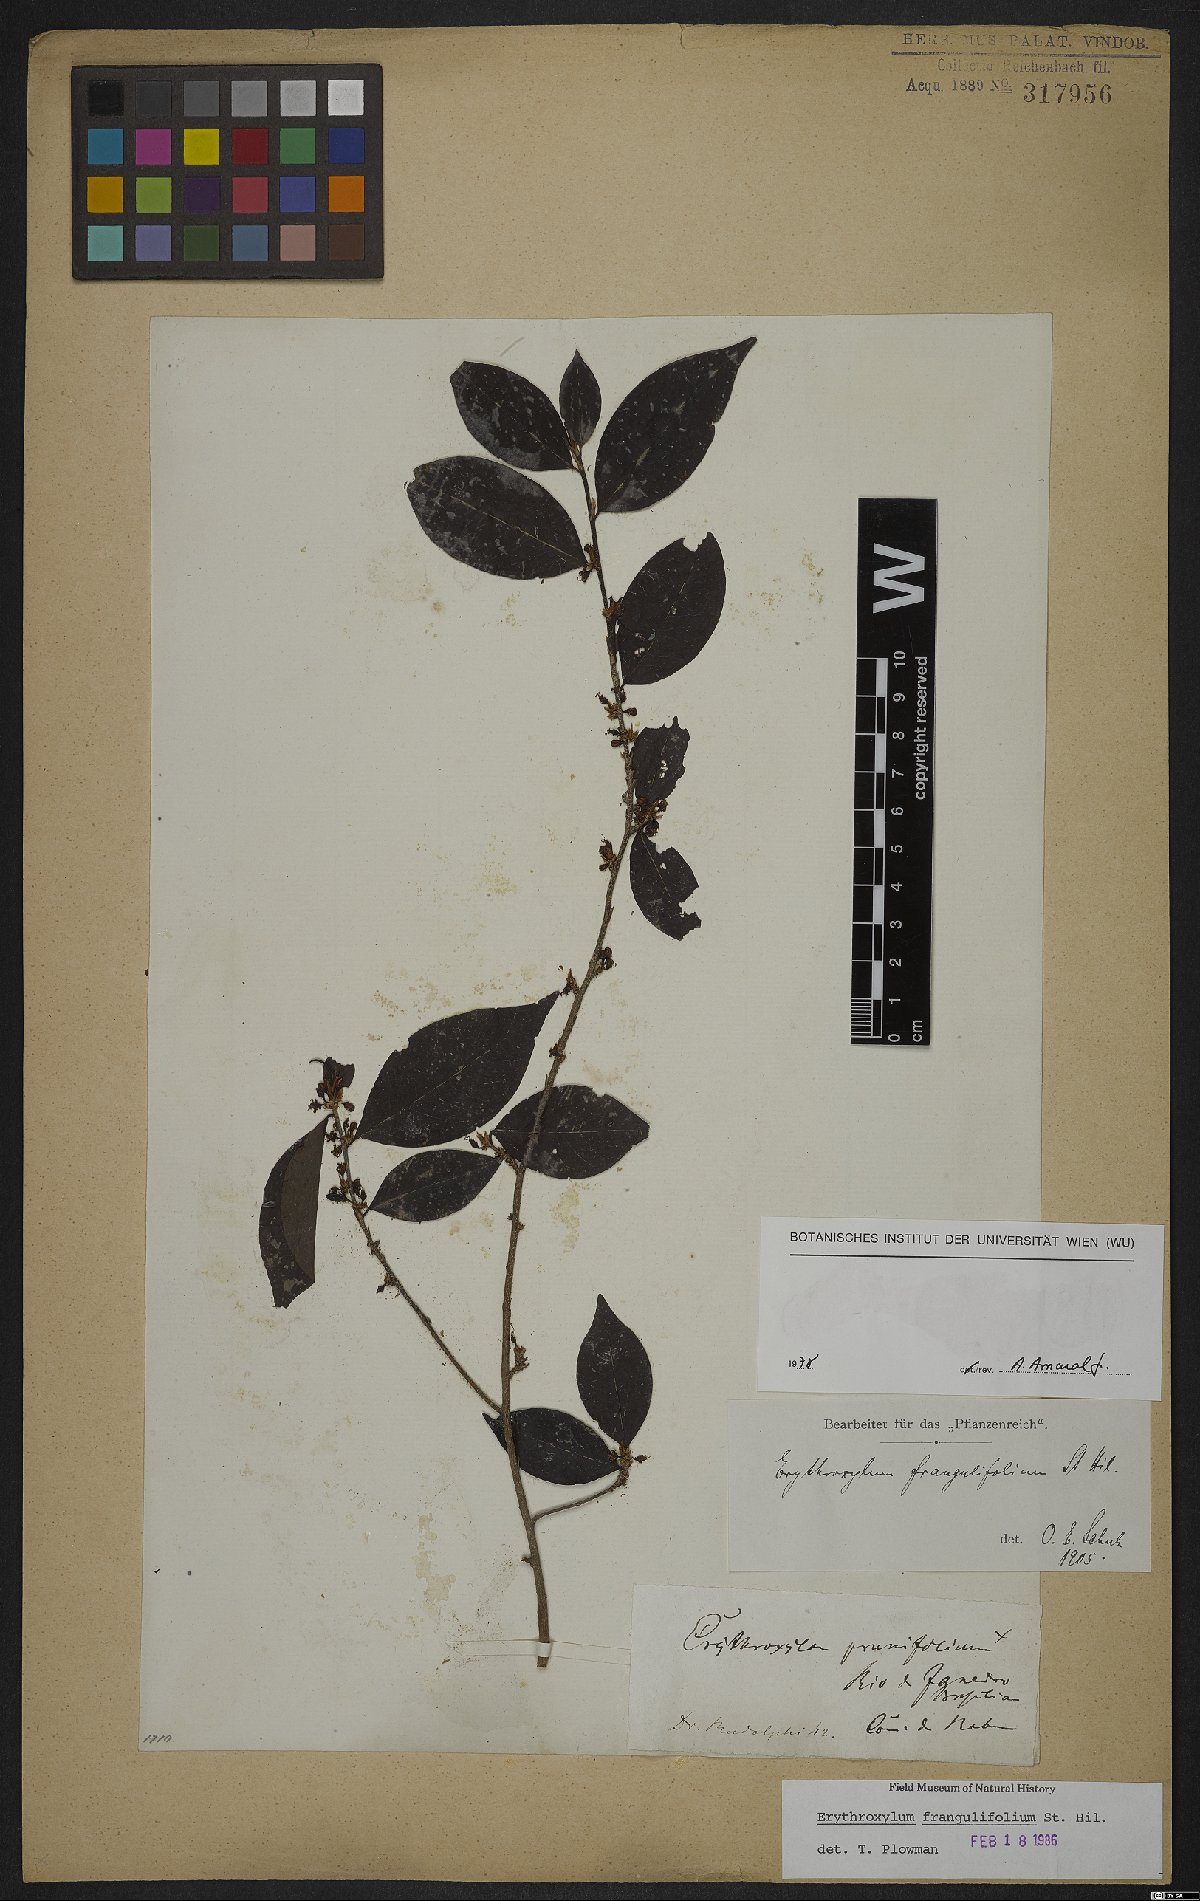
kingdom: Plantae
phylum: Tracheophyta
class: Magnoliopsida
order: Malpighiales
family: Erythroxylaceae
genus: Erythroxylum
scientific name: Erythroxylum frangulifolium
